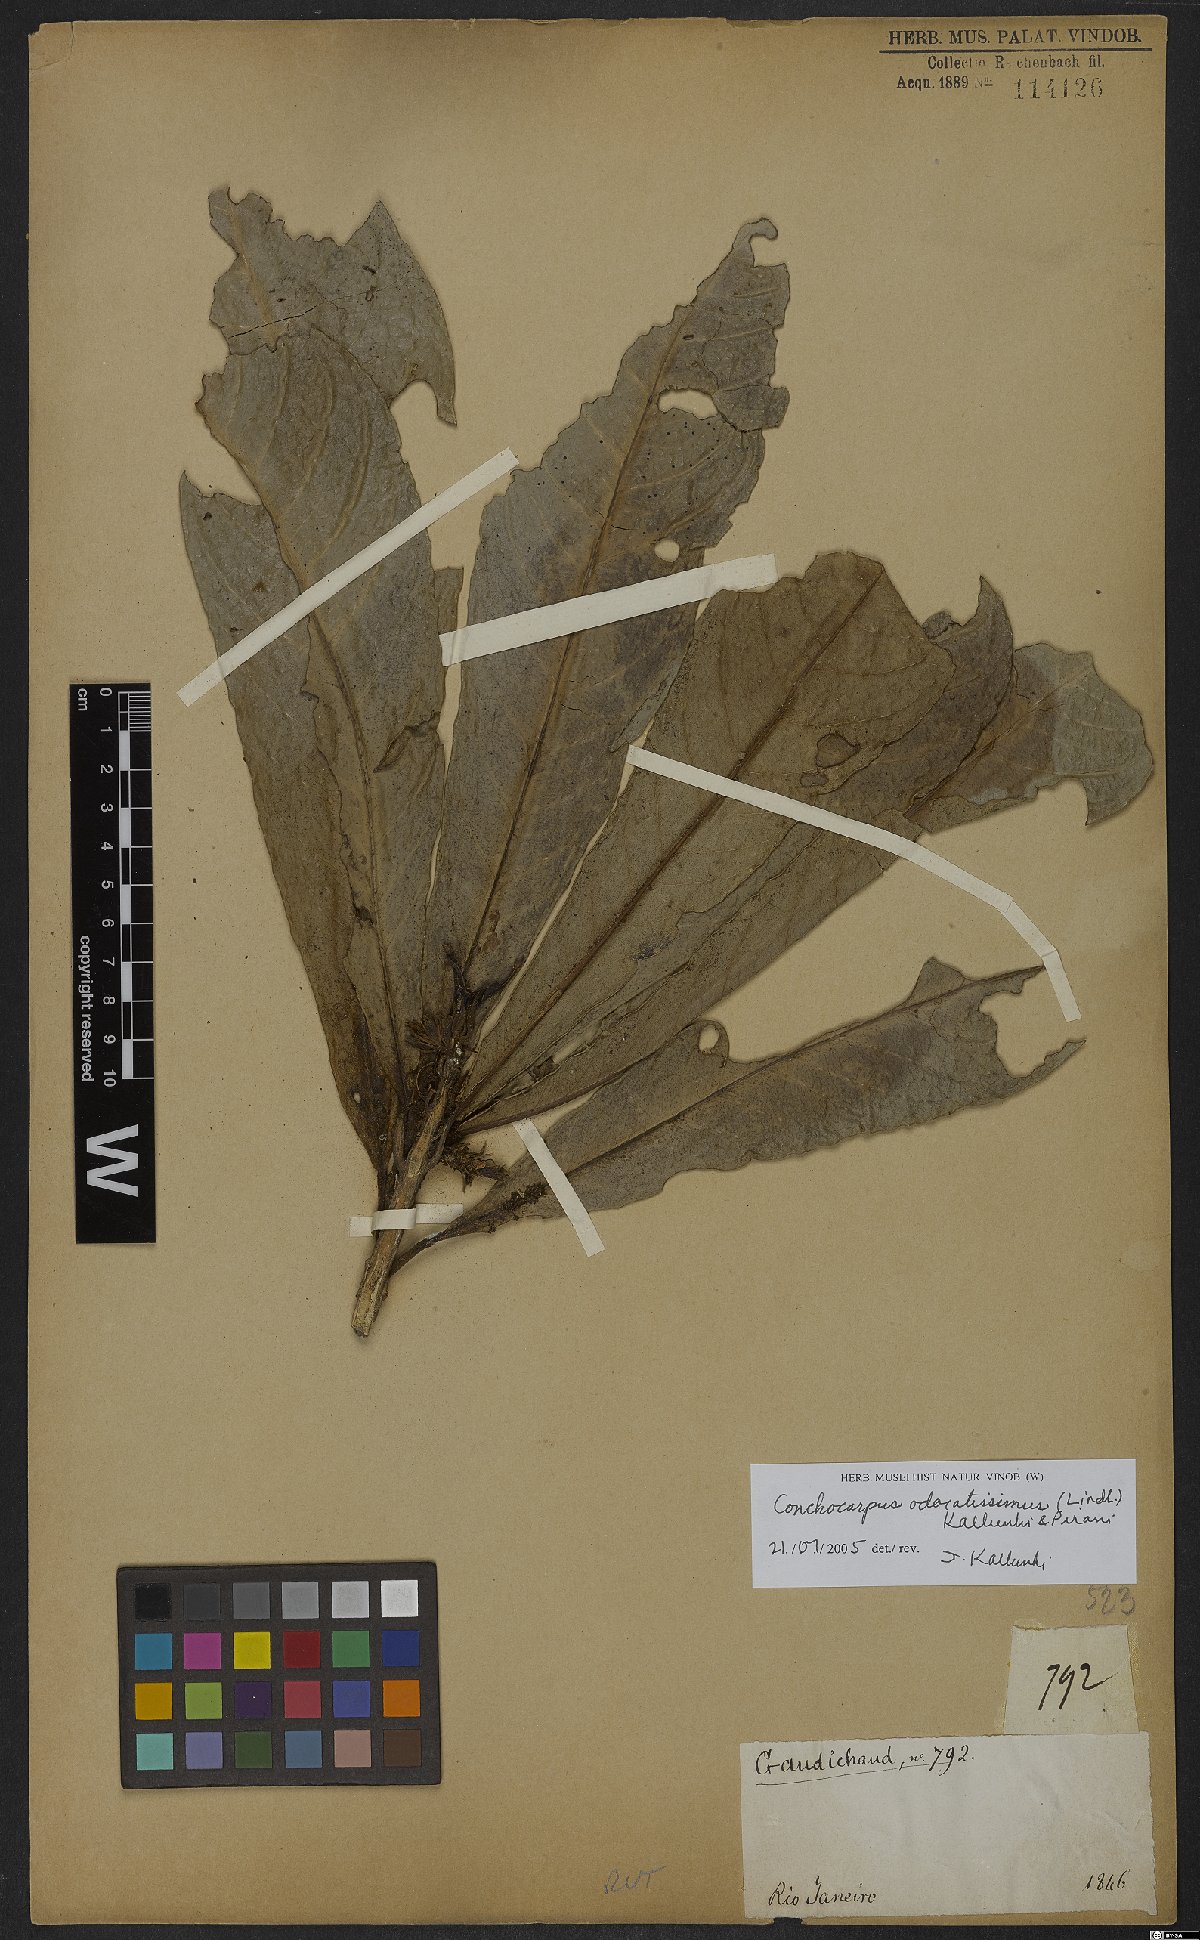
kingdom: Plantae
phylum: Tracheophyta
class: Magnoliopsida
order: Sapindales
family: Rutaceae
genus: Conchocarpus
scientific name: Conchocarpus odoratissimus
